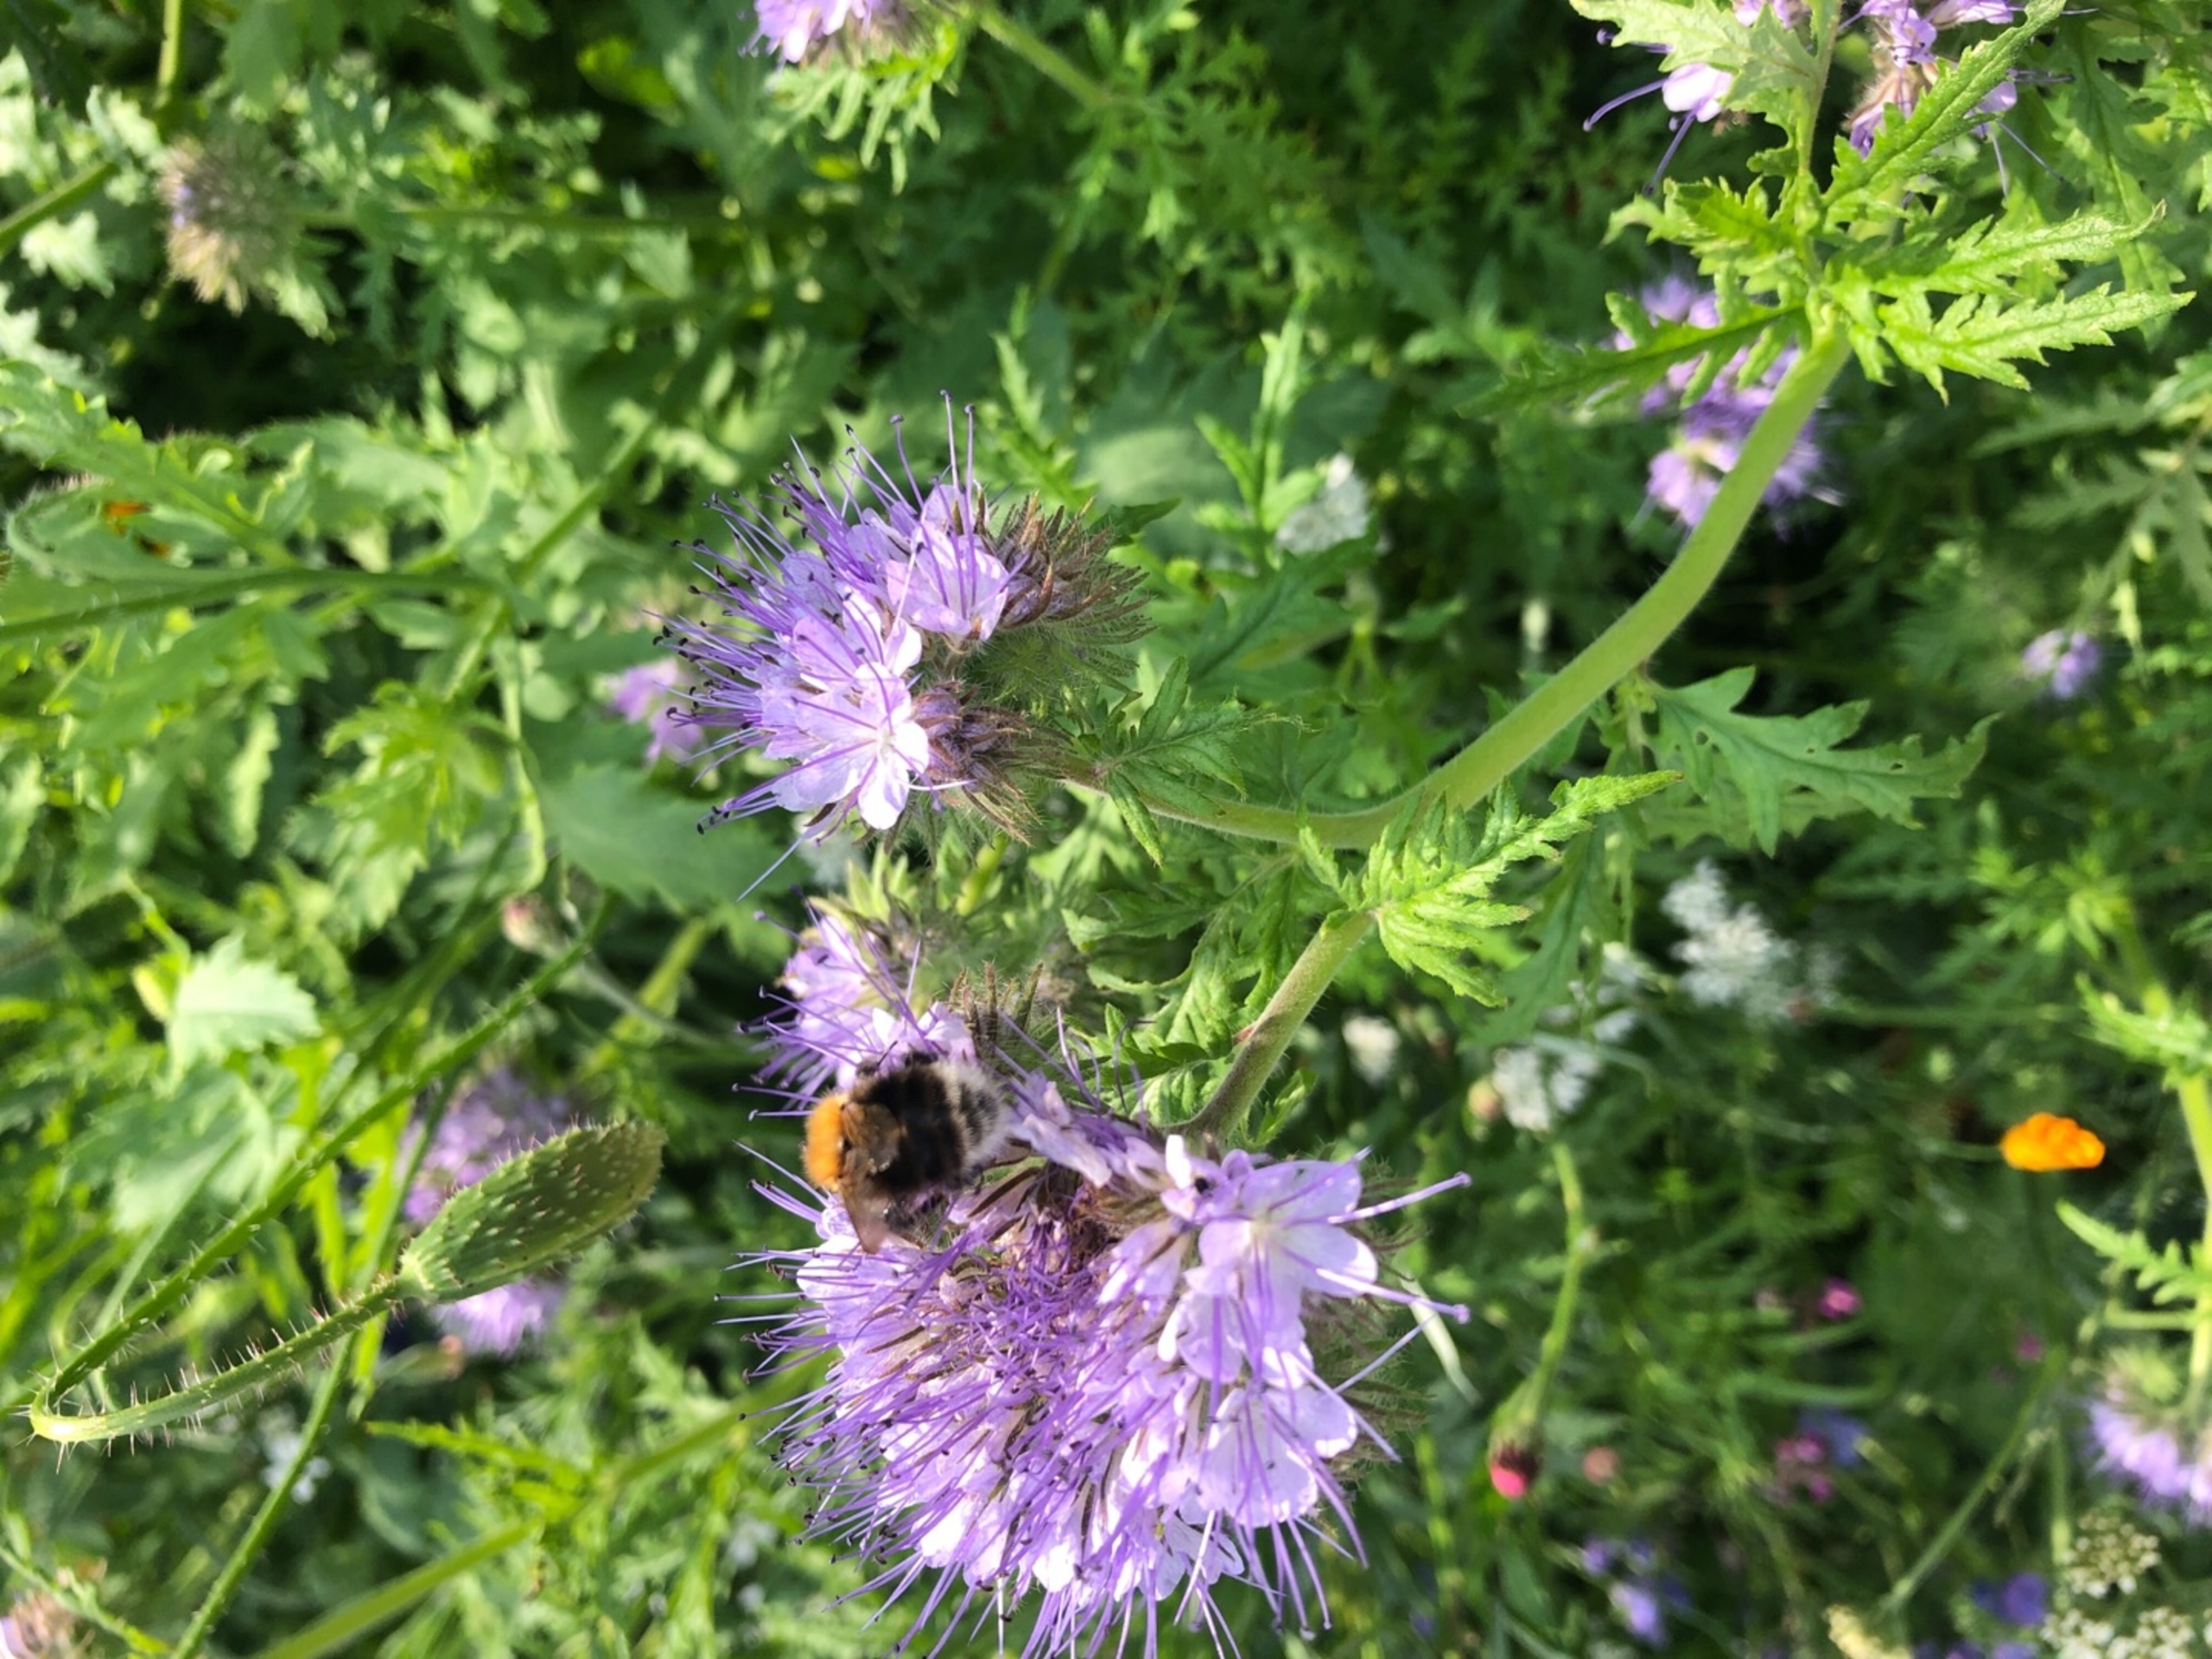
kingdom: Animalia
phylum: Arthropoda
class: Insecta
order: Hymenoptera
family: Apidae
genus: Bombus
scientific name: Bombus hypnorum
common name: Hushumle
